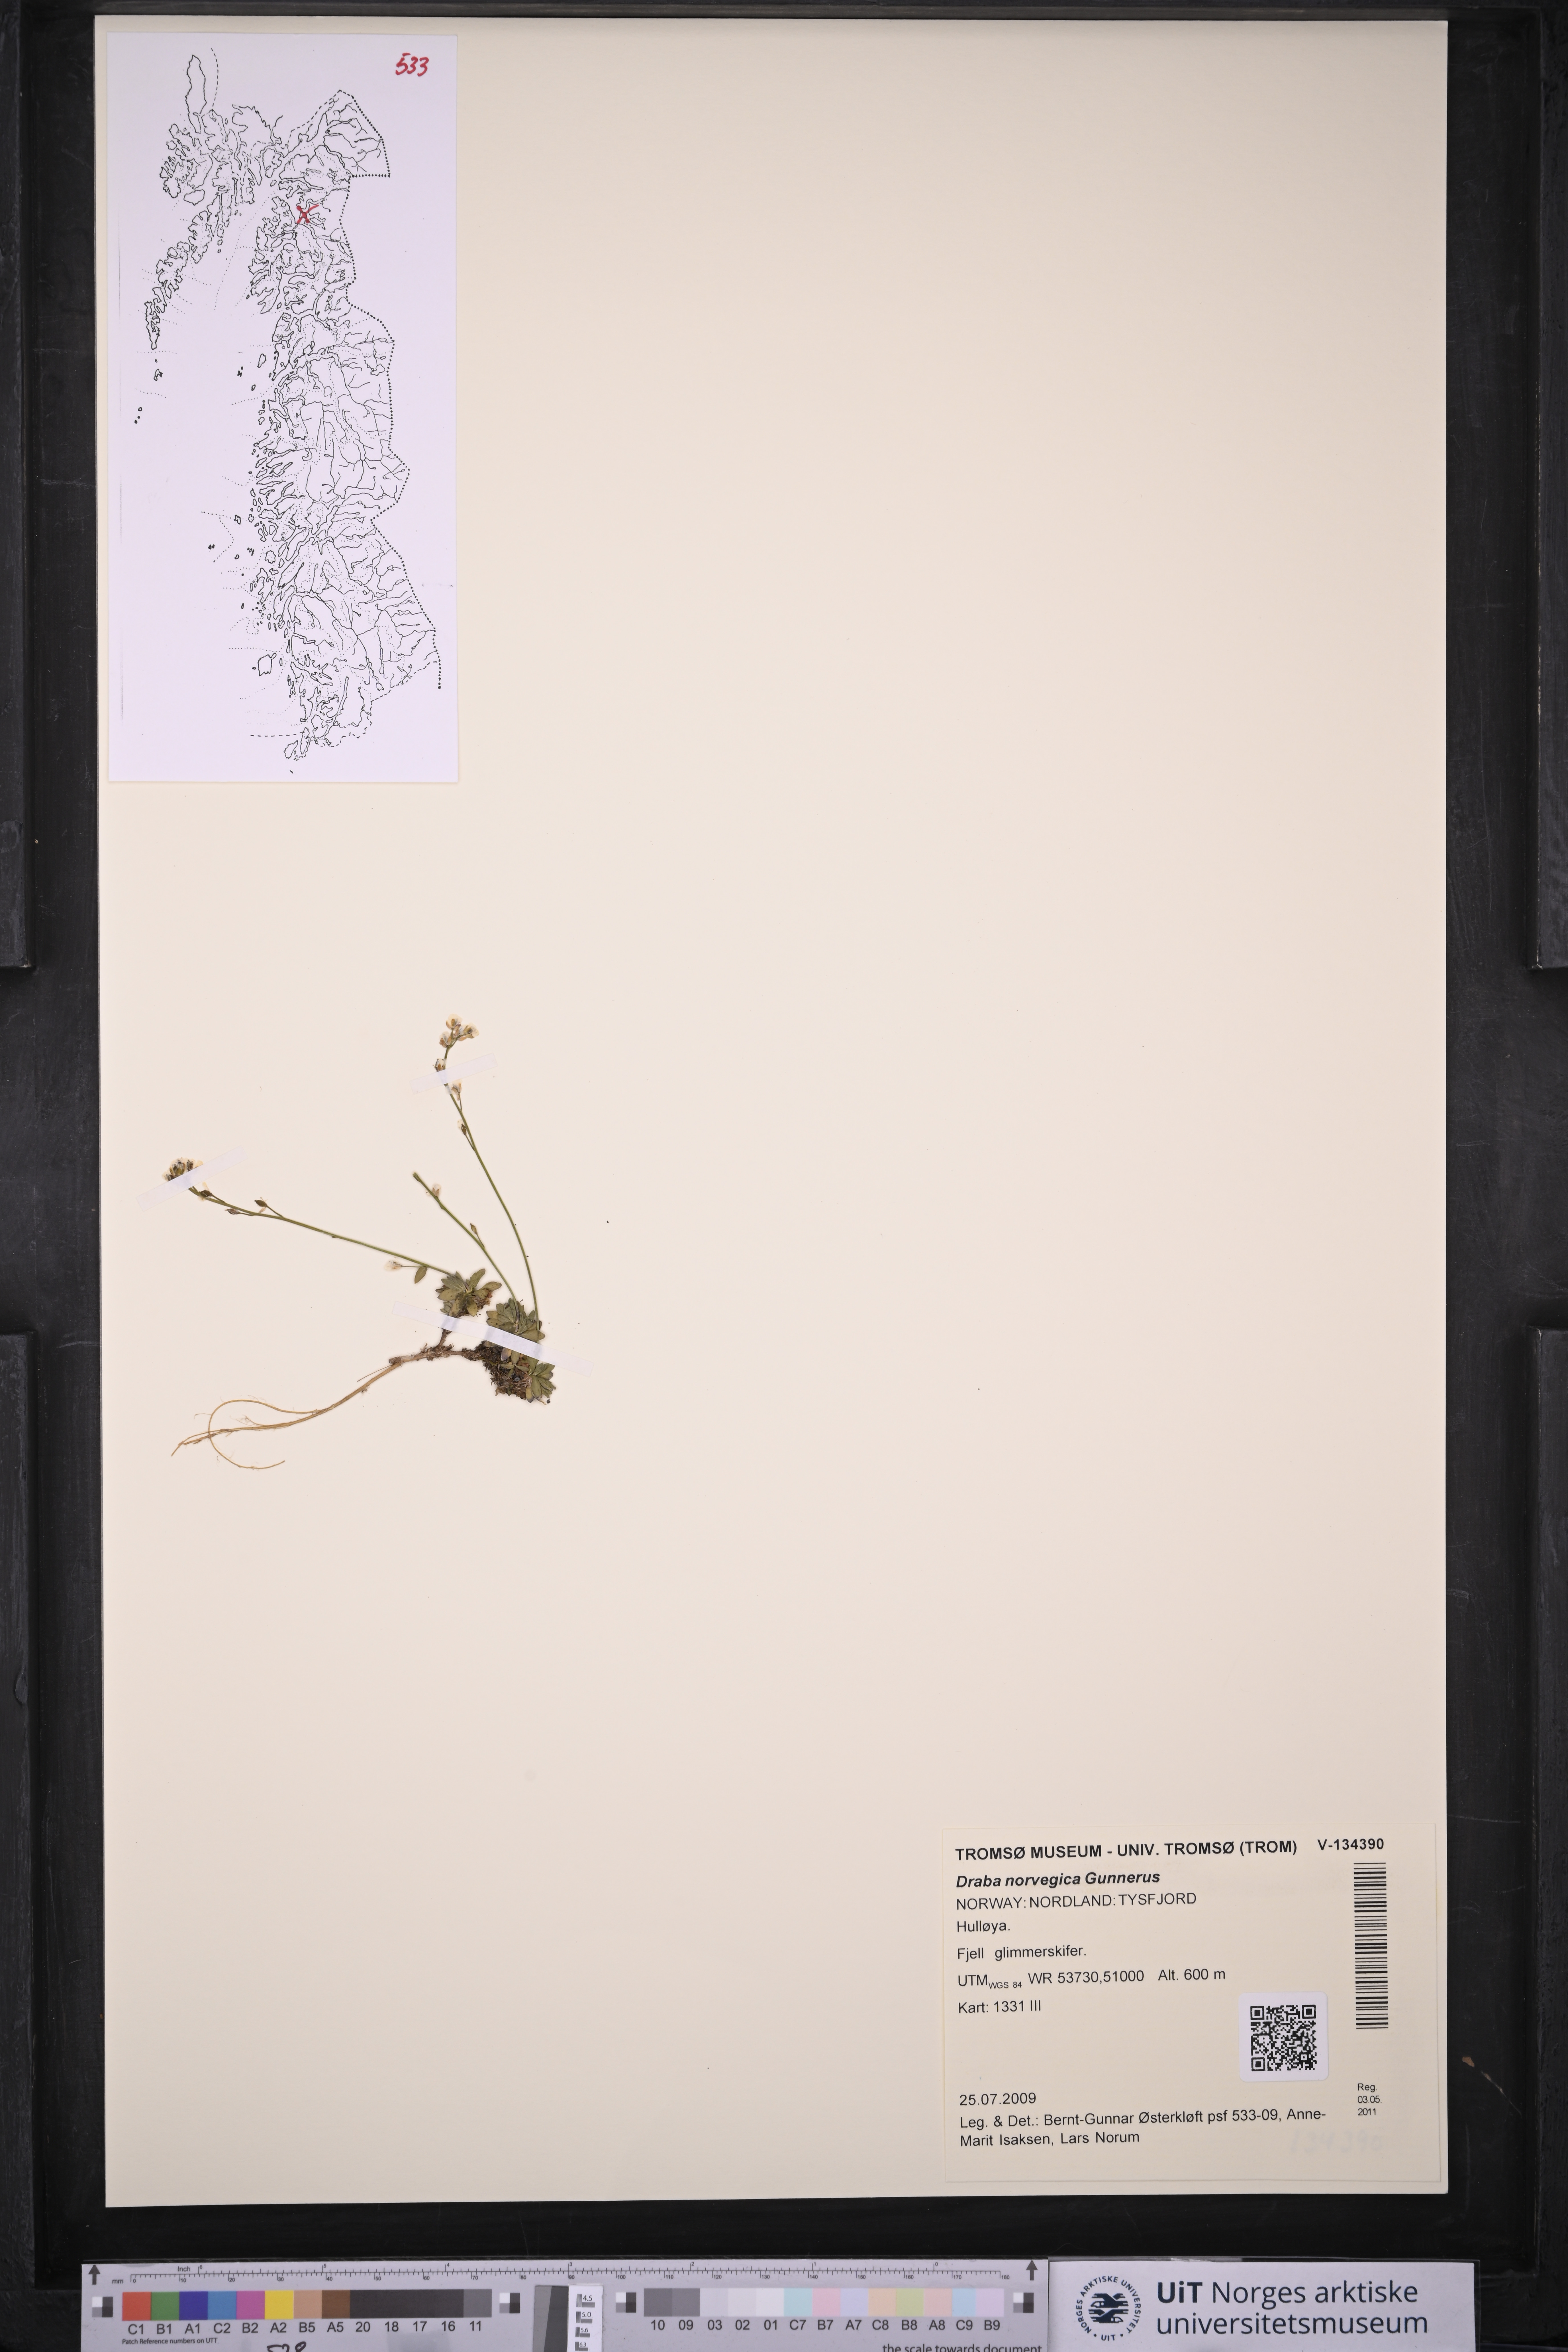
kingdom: Plantae
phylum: Tracheophyta
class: Magnoliopsida
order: Brassicales
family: Brassicaceae
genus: Draba
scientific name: Draba norvegica
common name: Rock whitlowgrass
